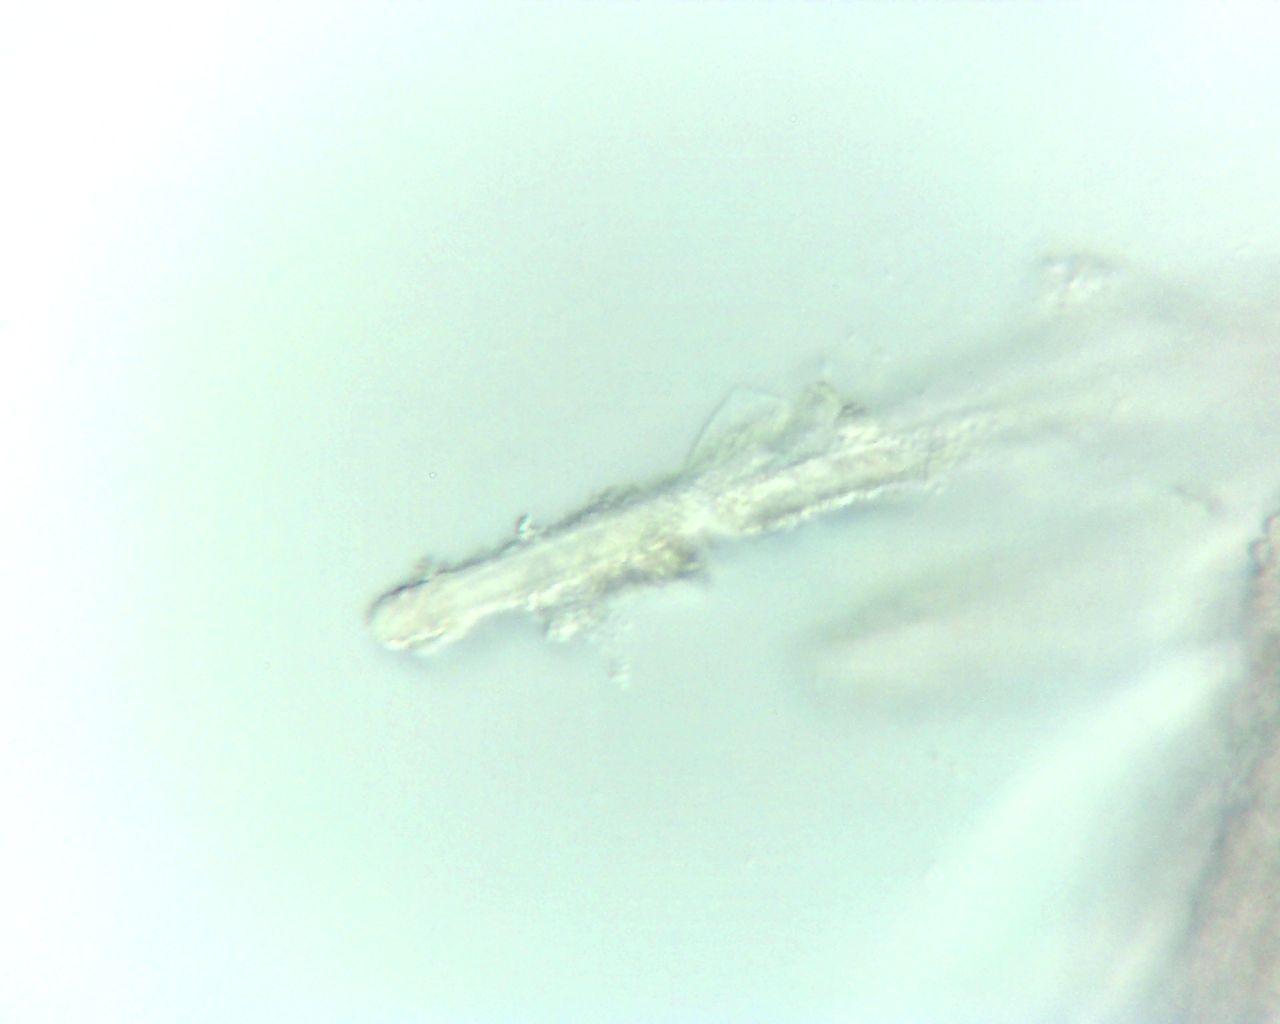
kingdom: Fungi
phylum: Basidiomycota
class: Agaricomycetes
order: Agaricales
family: Niaceae
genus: Lachnella
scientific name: Lachnella alboviolascens
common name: grå frynserede
